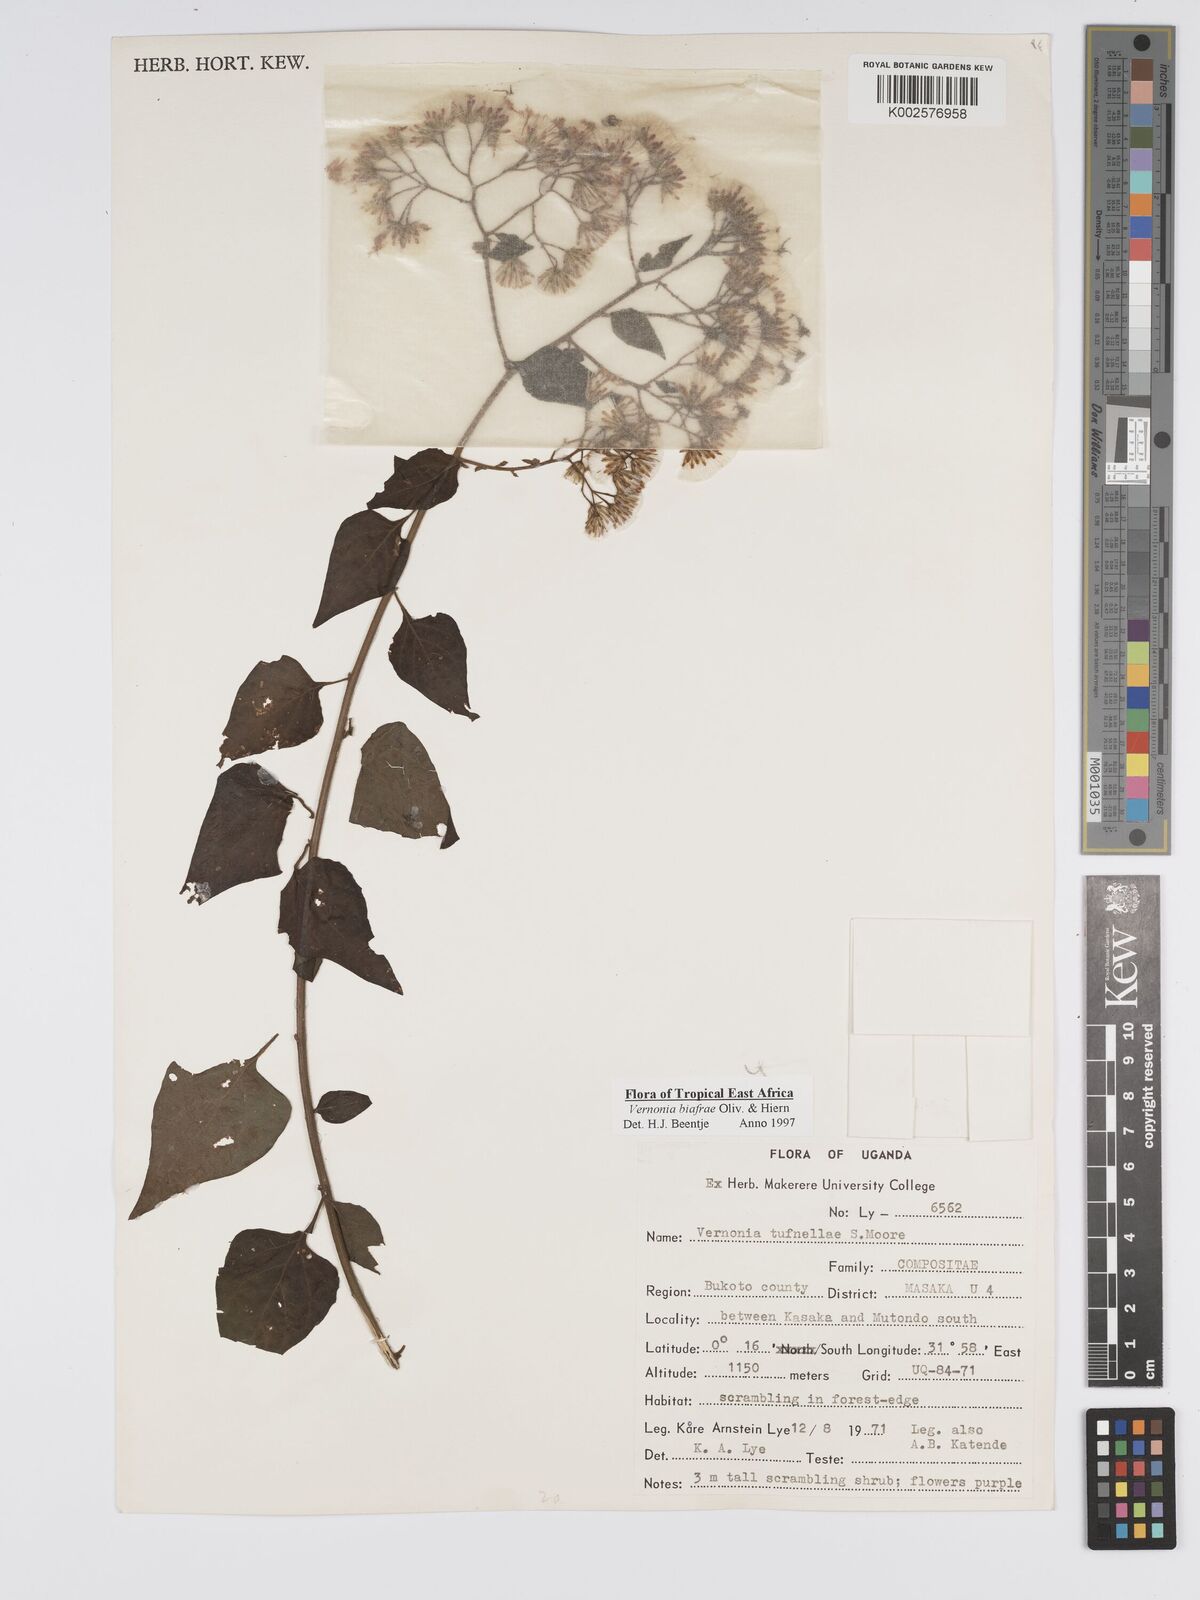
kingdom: Plantae
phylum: Tracheophyta
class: Magnoliopsida
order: Asterales
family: Asteraceae
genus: Distephanus
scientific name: Distephanus biafrae
